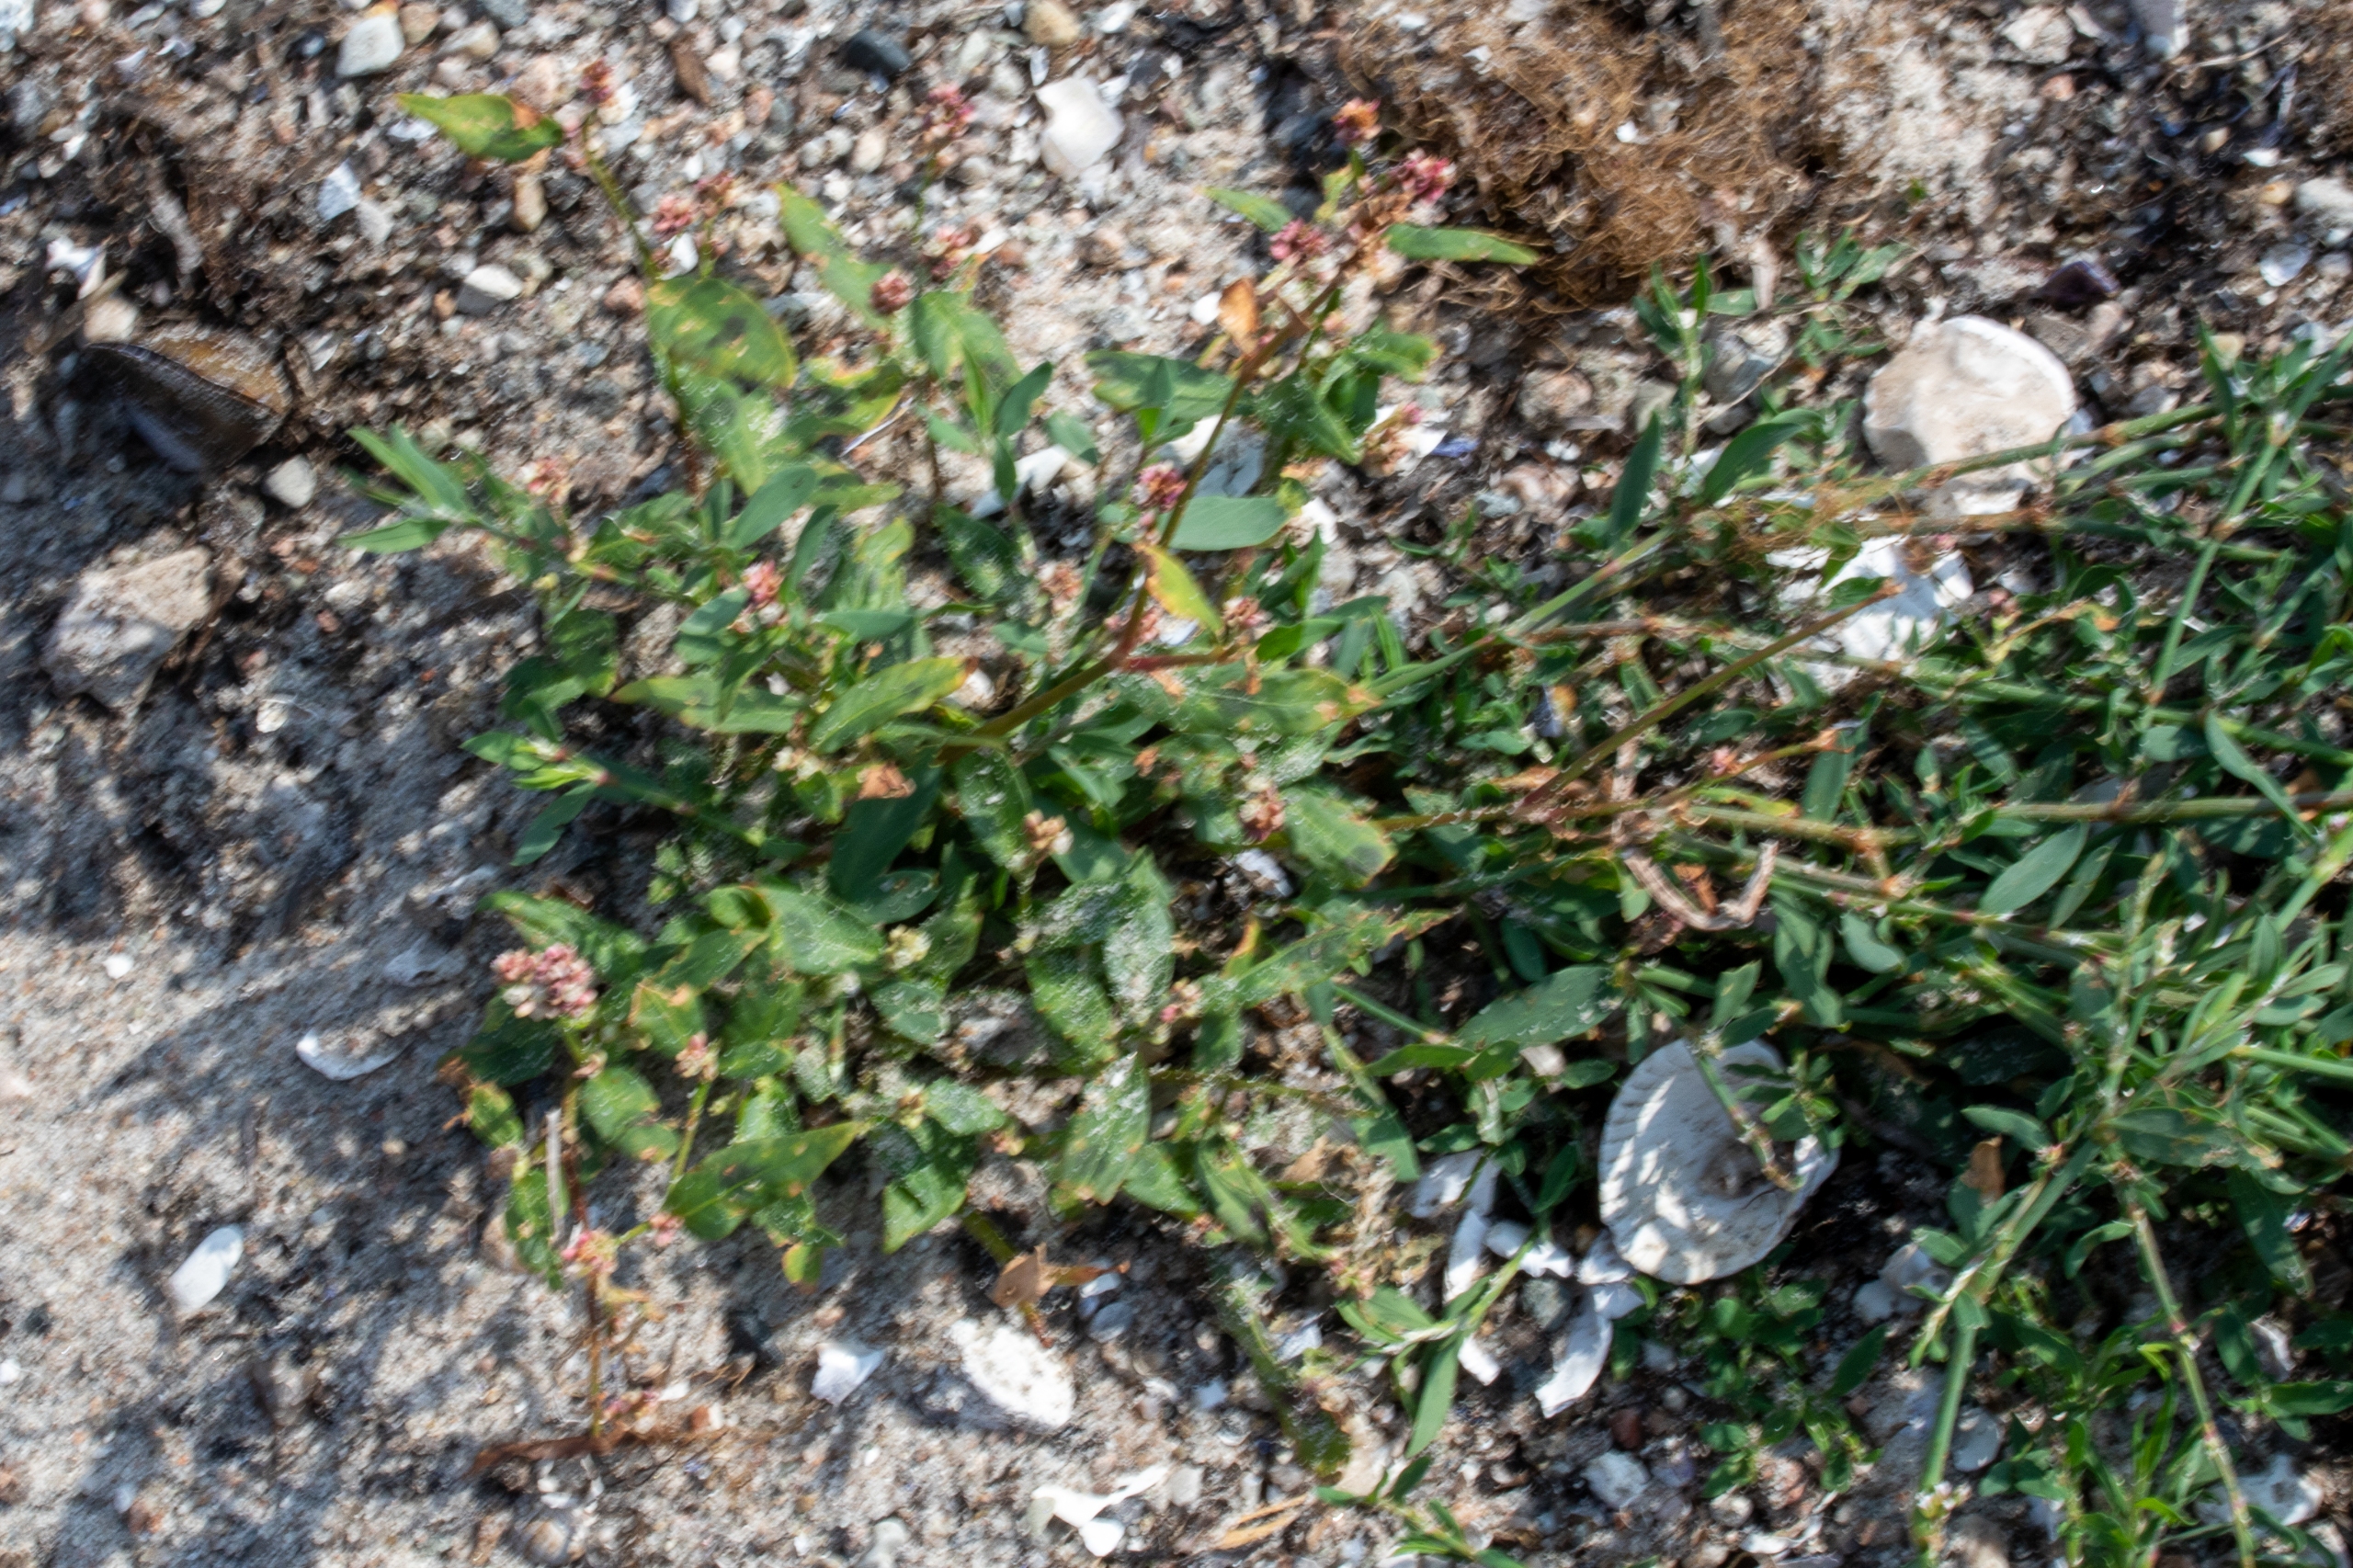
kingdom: Plantae
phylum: Tracheophyta
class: Magnoliopsida
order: Caryophyllales
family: Polygonaceae
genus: Polygonum
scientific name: Polygonum arenastrum
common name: Liggende vej-pileurt
